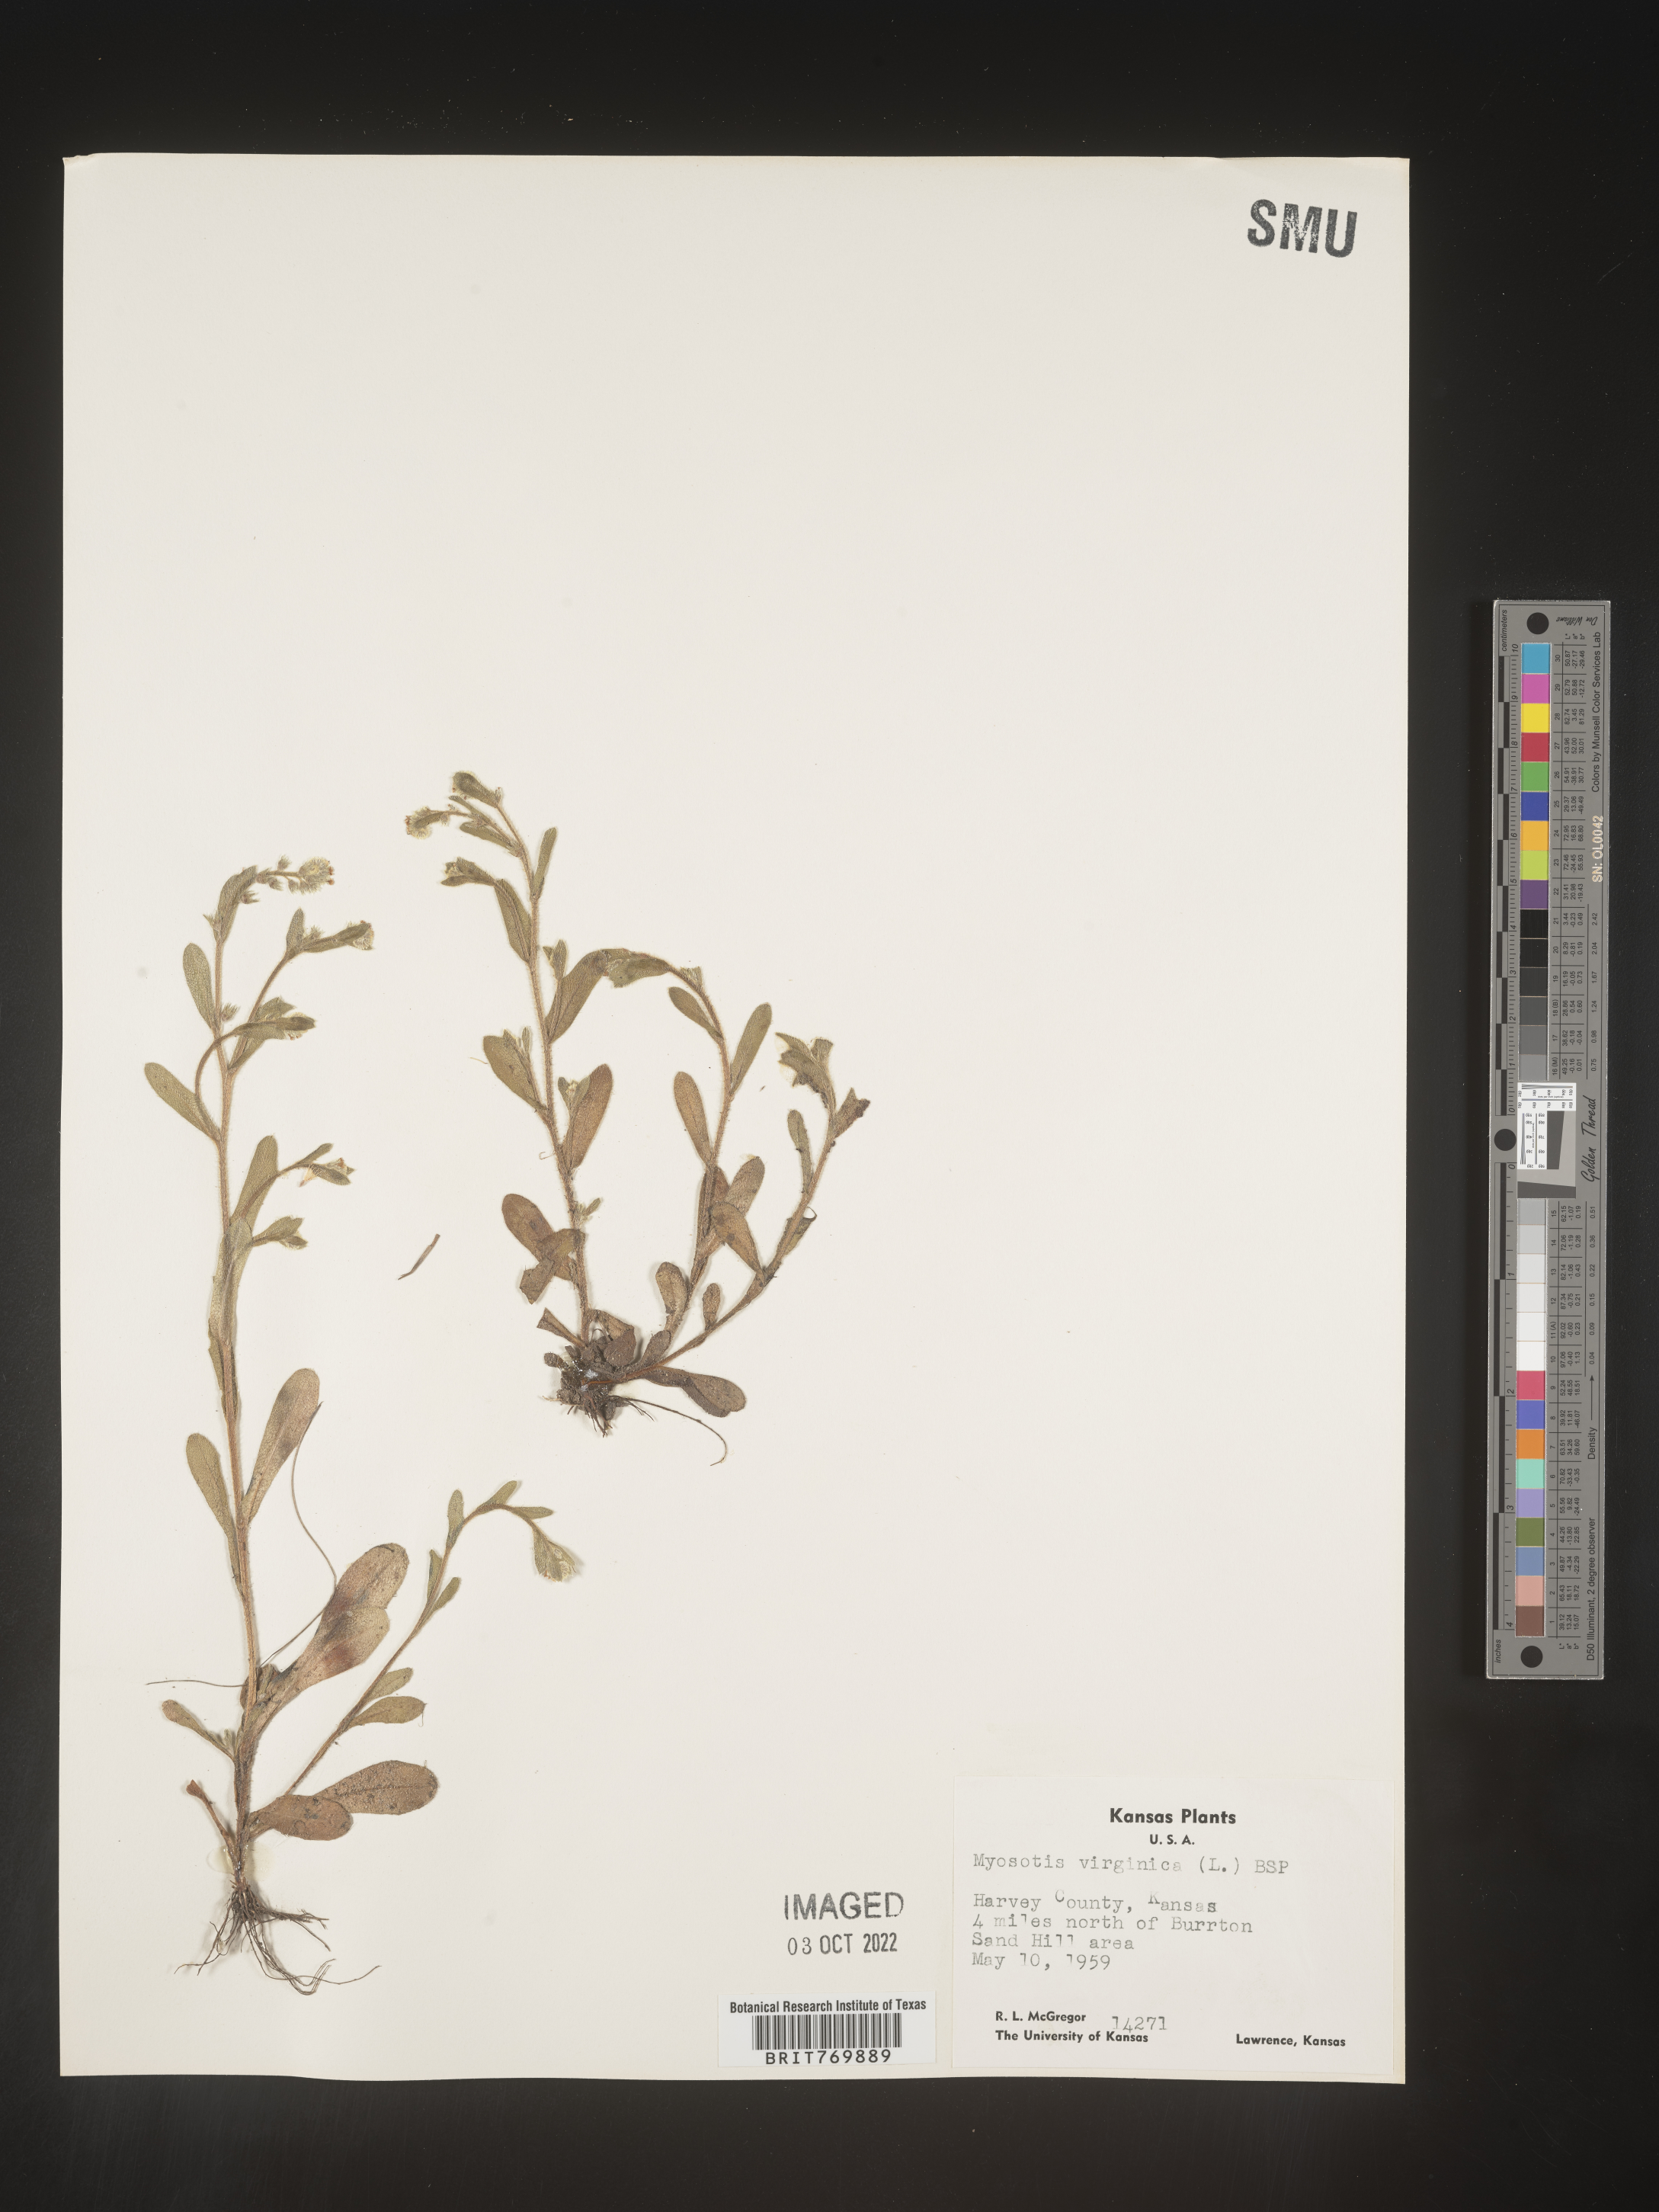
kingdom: Plantae
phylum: Tracheophyta
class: Magnoliopsida
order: Boraginales
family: Boraginaceae
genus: Myosotis
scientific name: Myosotis verna
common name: Early forget-me-not
